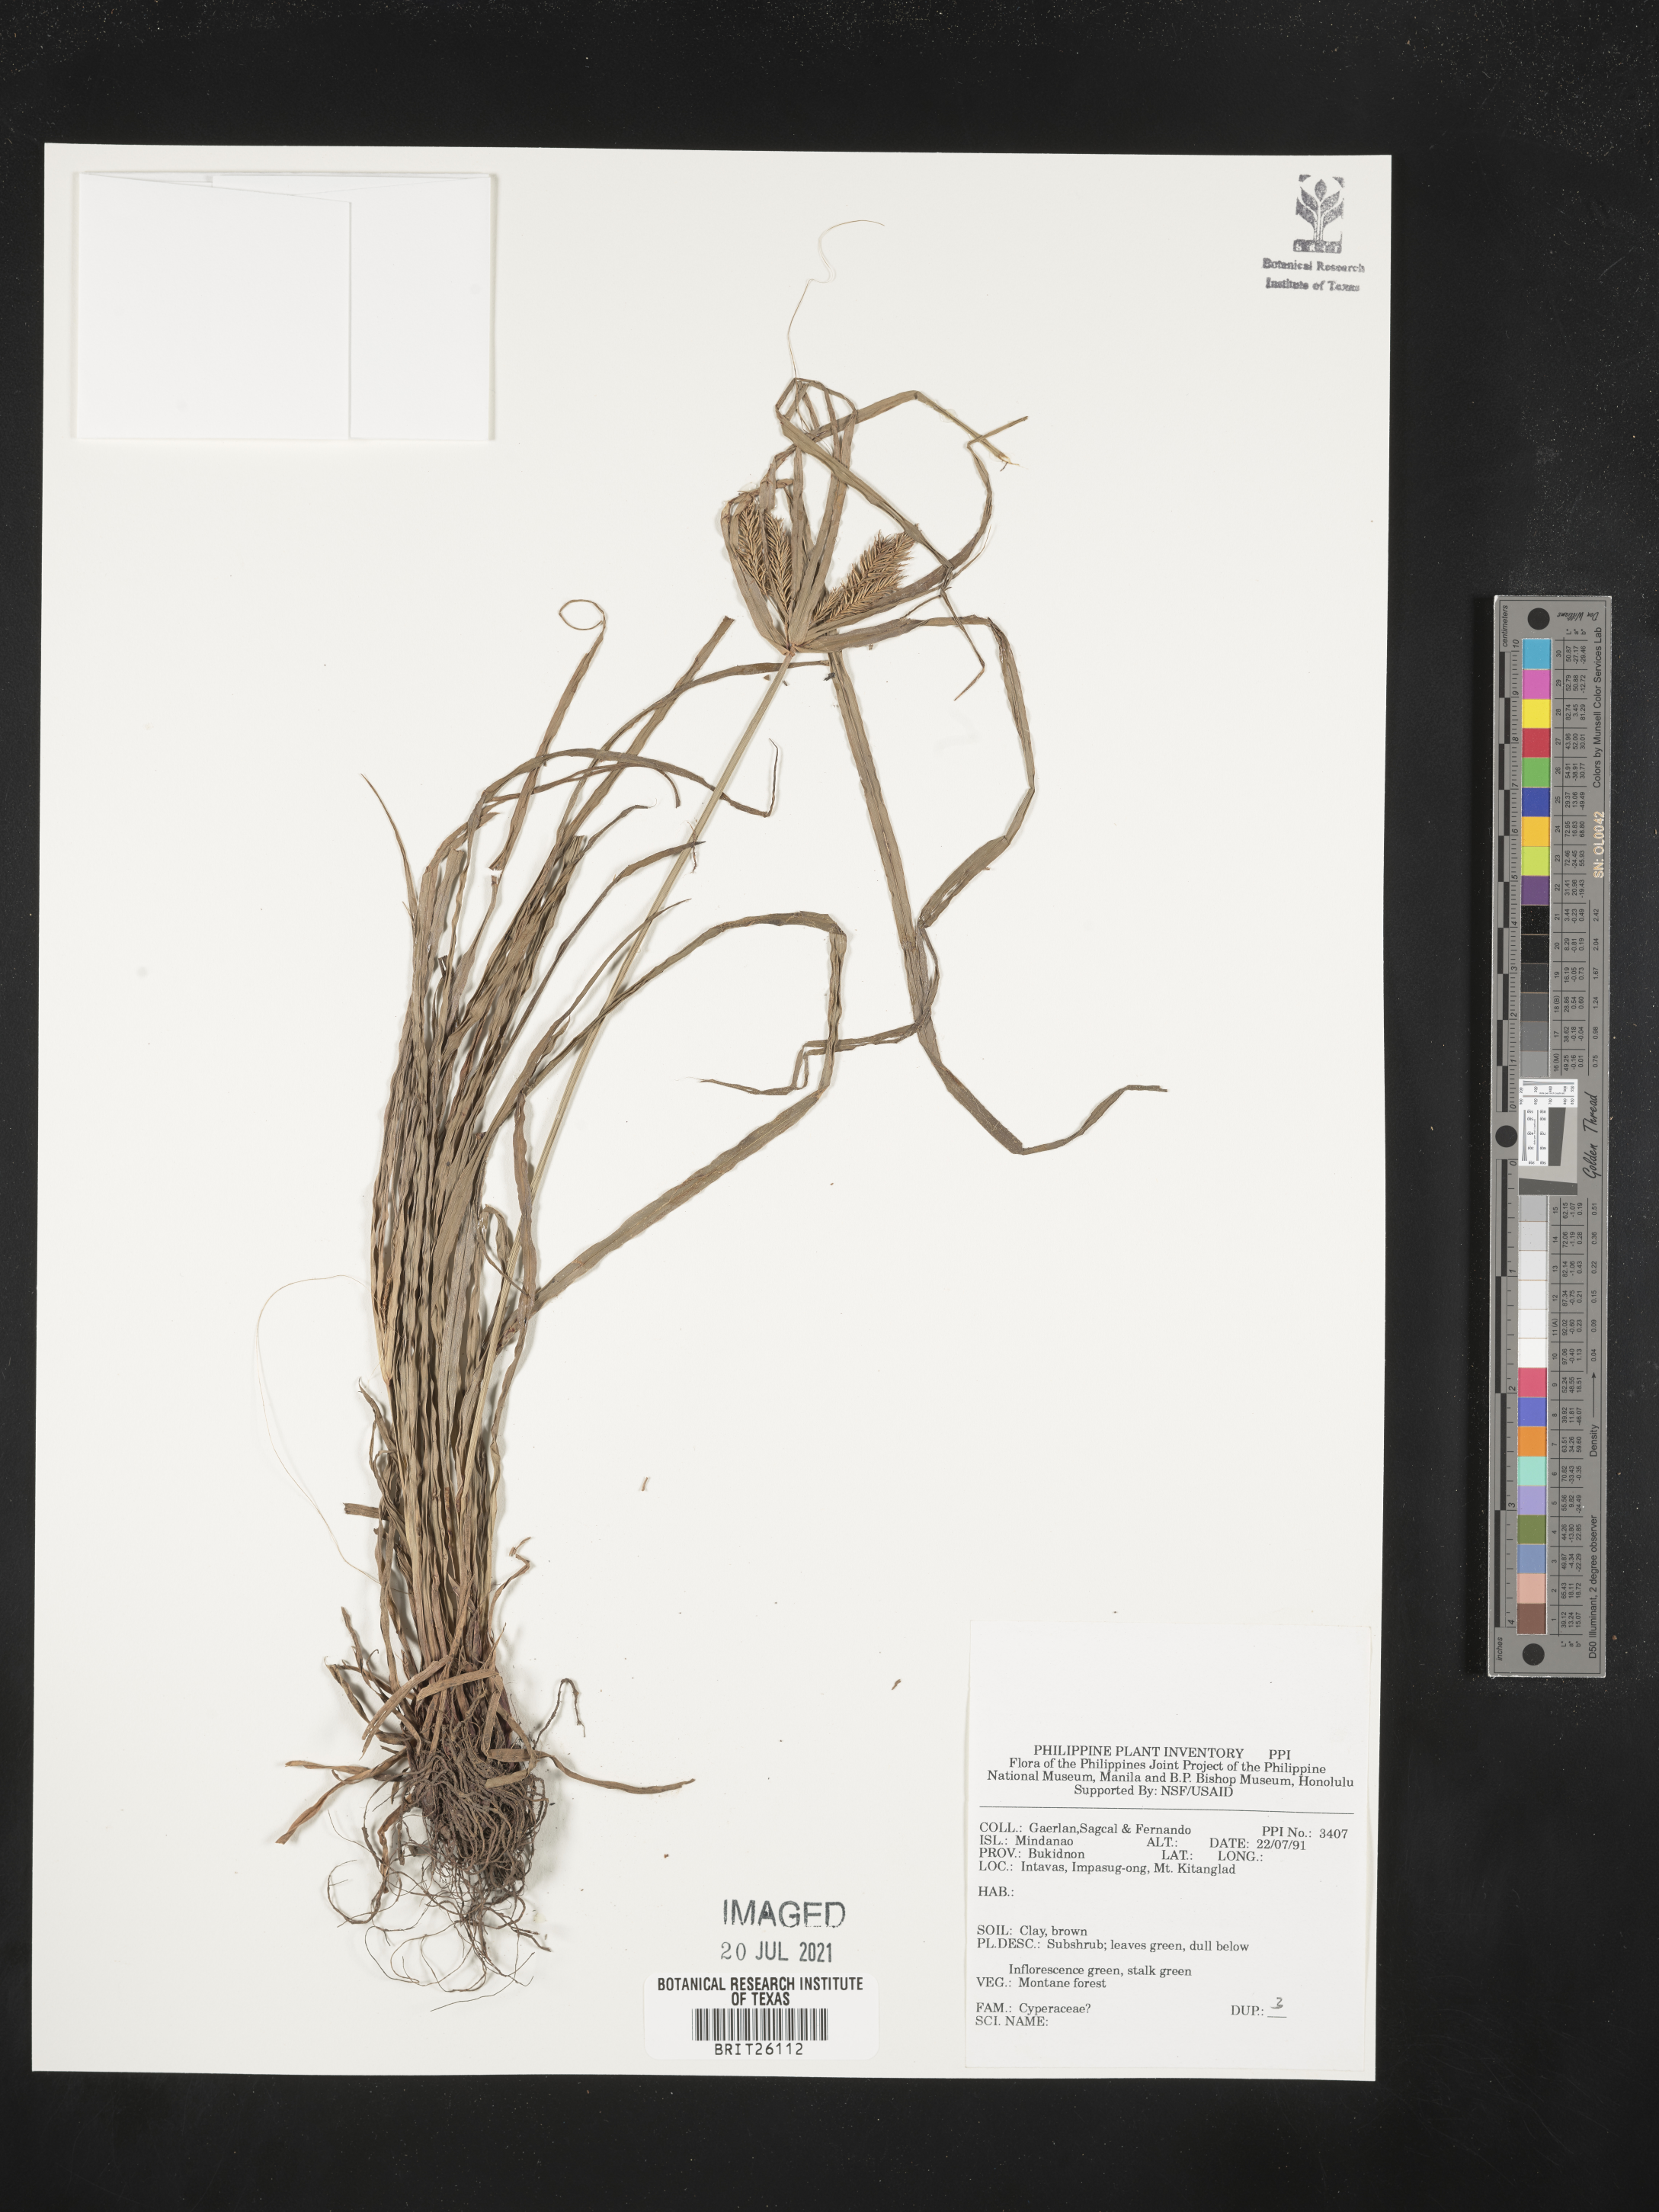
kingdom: Plantae
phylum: Tracheophyta
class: Liliopsida
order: Poales
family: Cyperaceae
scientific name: Cyperaceae
